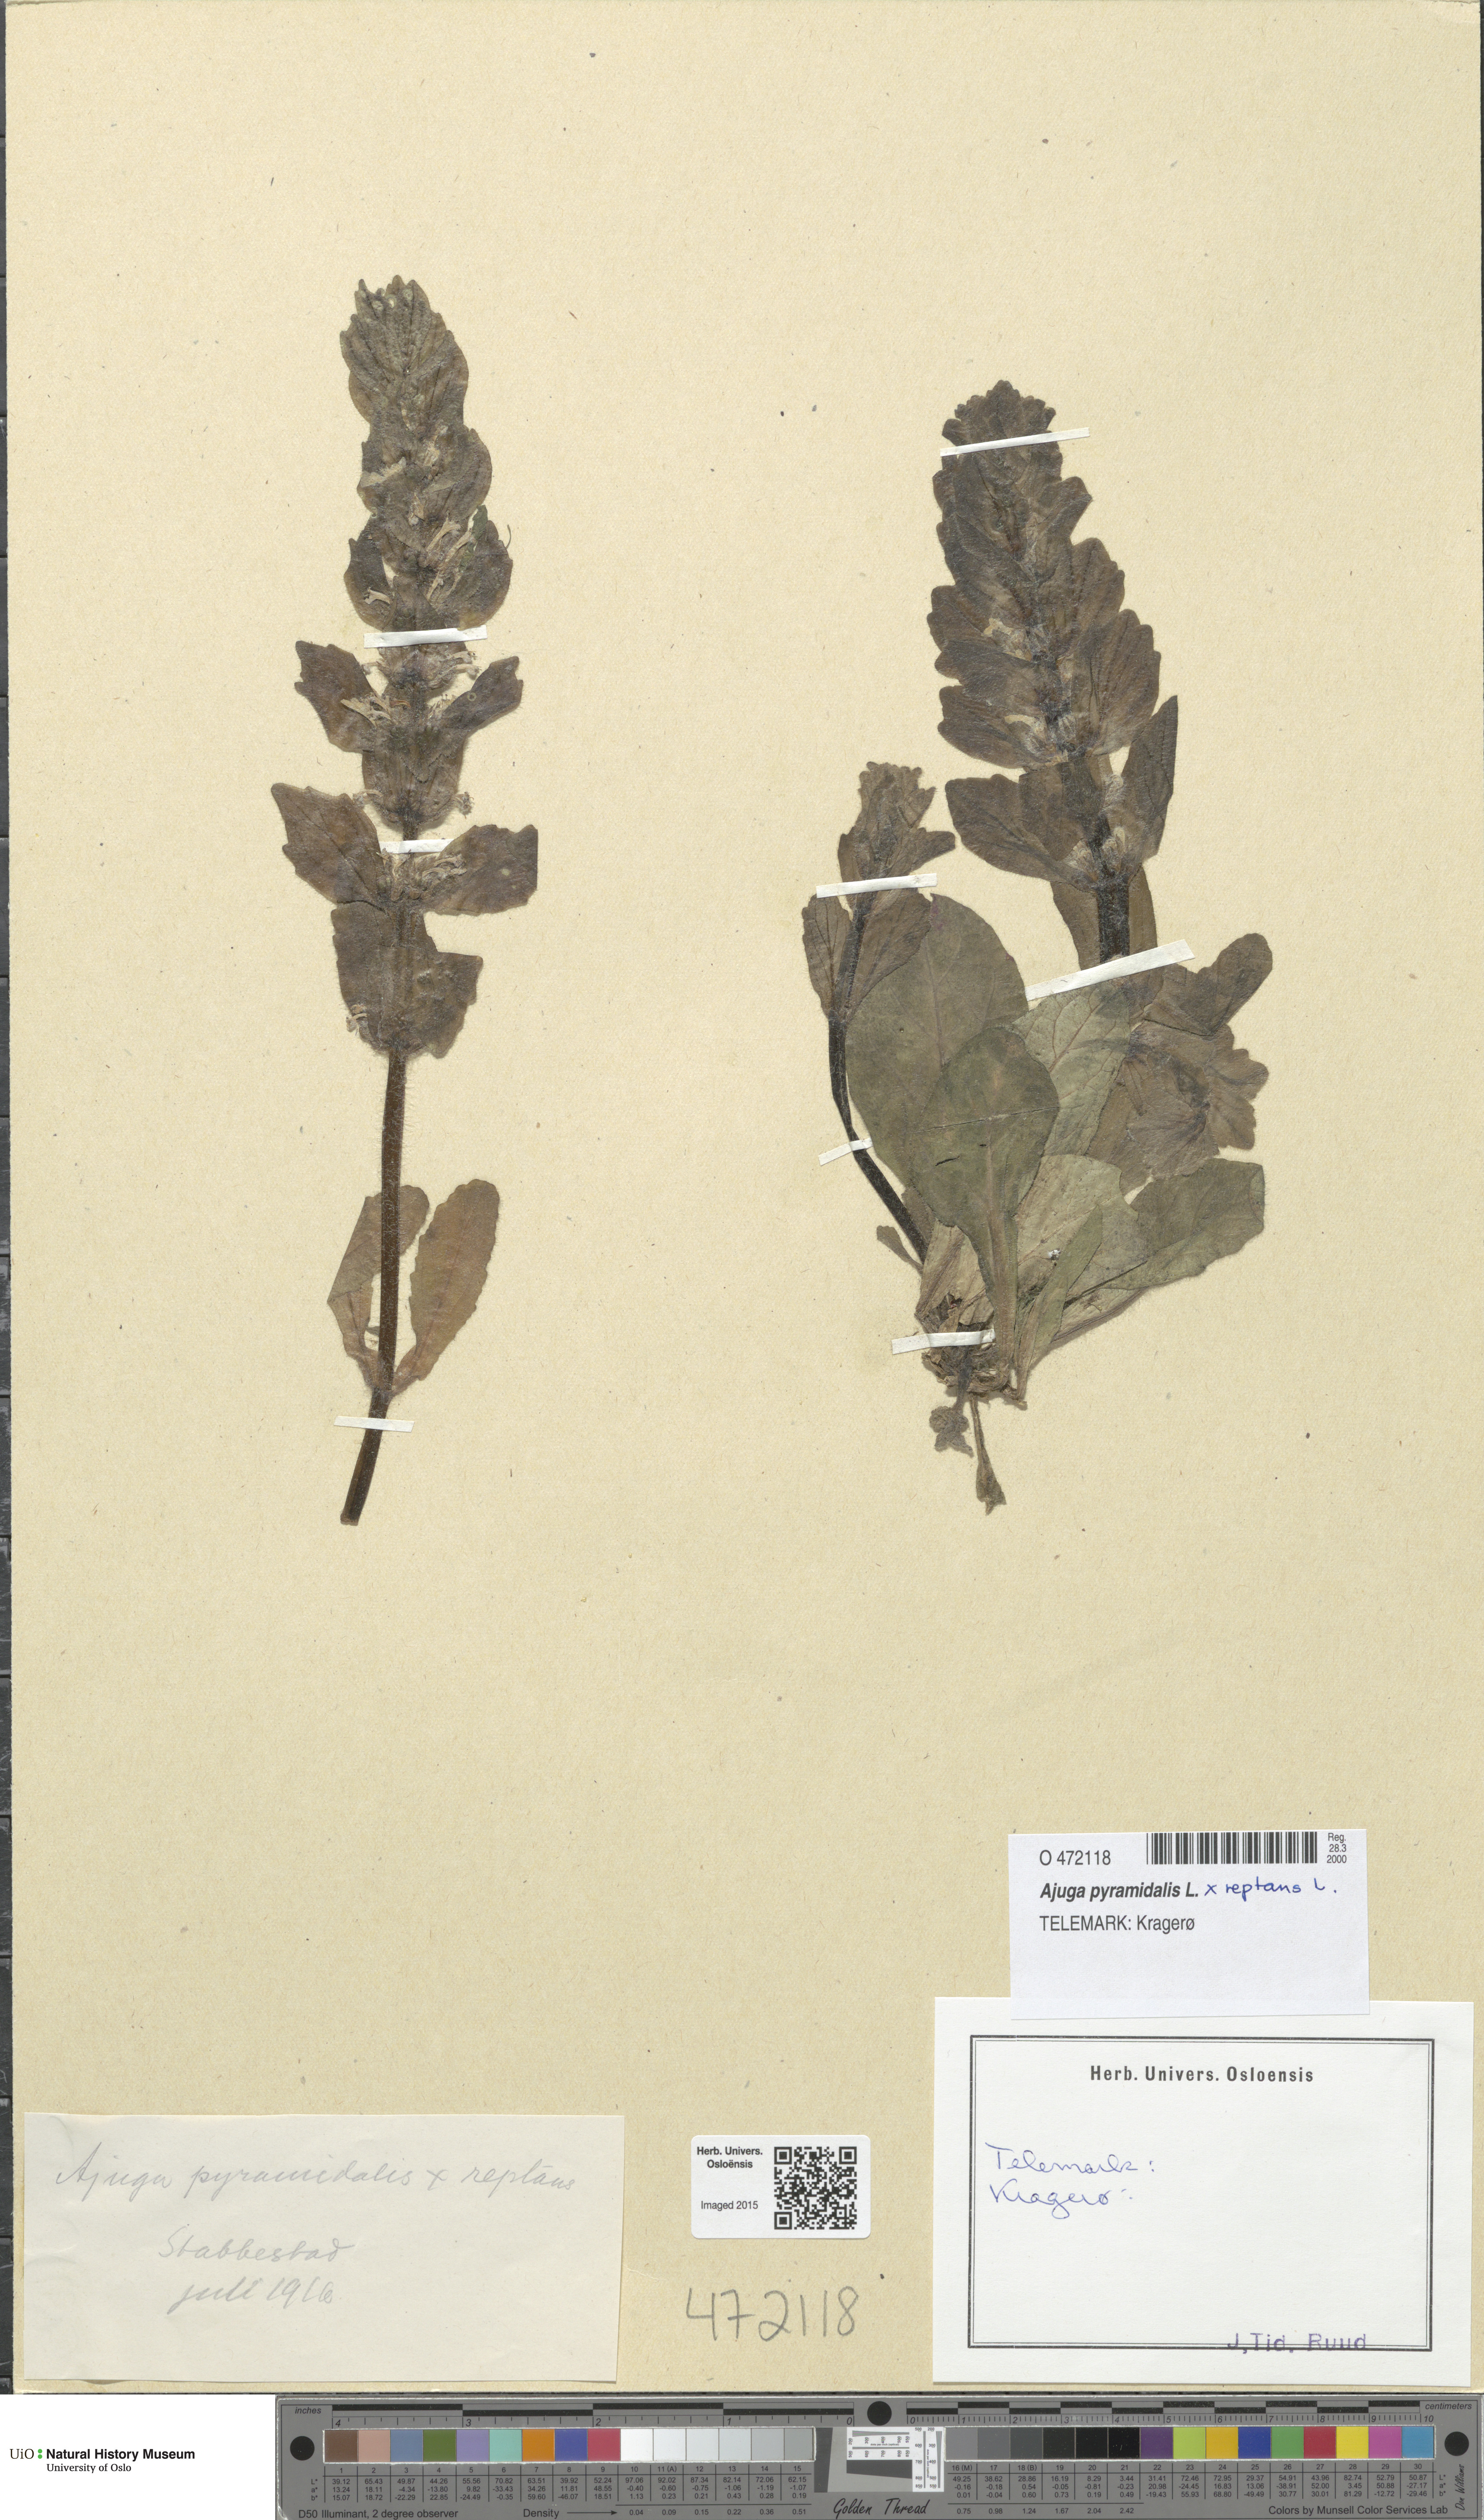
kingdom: Plantae
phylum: Tracheophyta
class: Magnoliopsida
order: Lamiales
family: Lamiaceae
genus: Ajuga
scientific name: Ajuga
